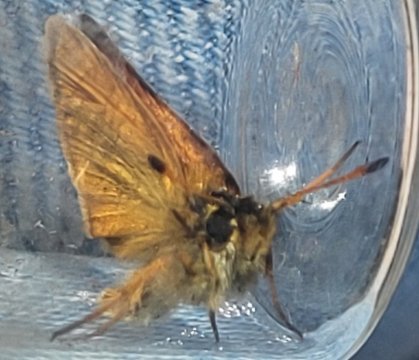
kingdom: Animalia
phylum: Arthropoda
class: Insecta
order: Lepidoptera
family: Hesperiidae
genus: Thymelicus
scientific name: Thymelicus lineola
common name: European Skipper
